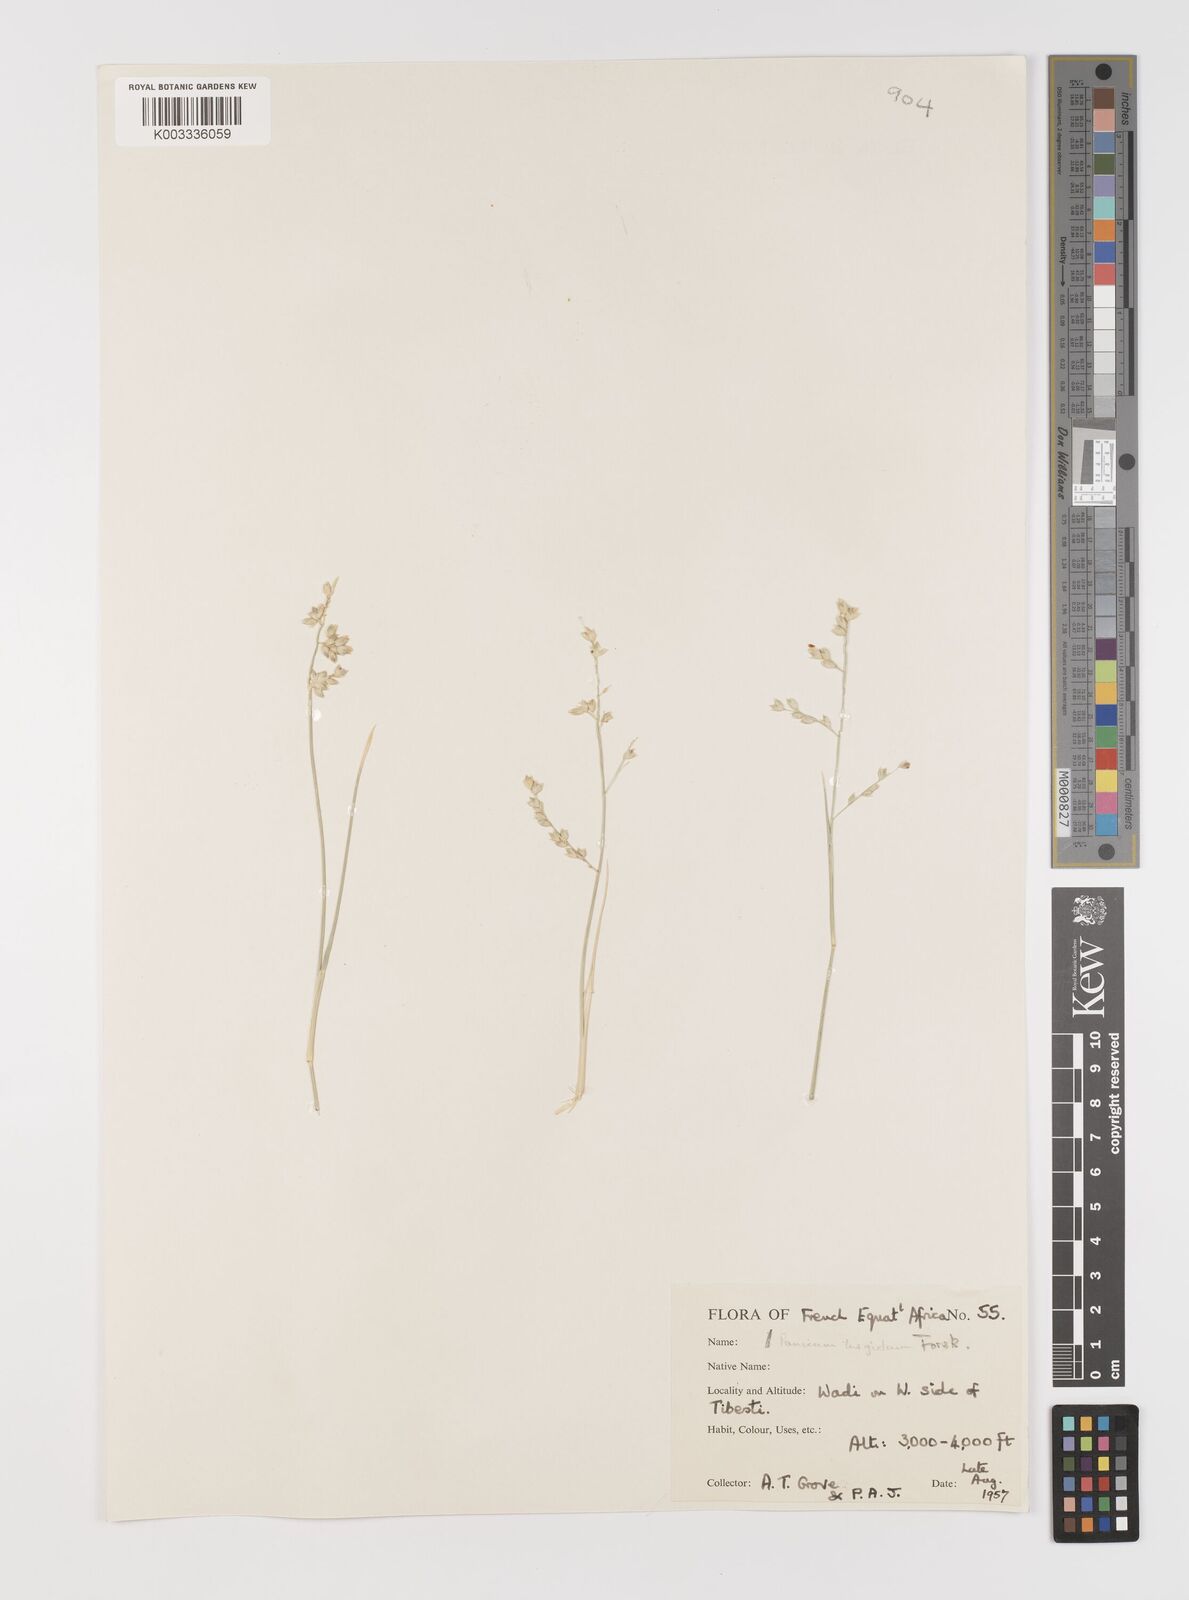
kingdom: Plantae
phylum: Tracheophyta
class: Liliopsida
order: Poales
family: Poaceae
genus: Panicum
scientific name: Panicum turgidum
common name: Desert grass
